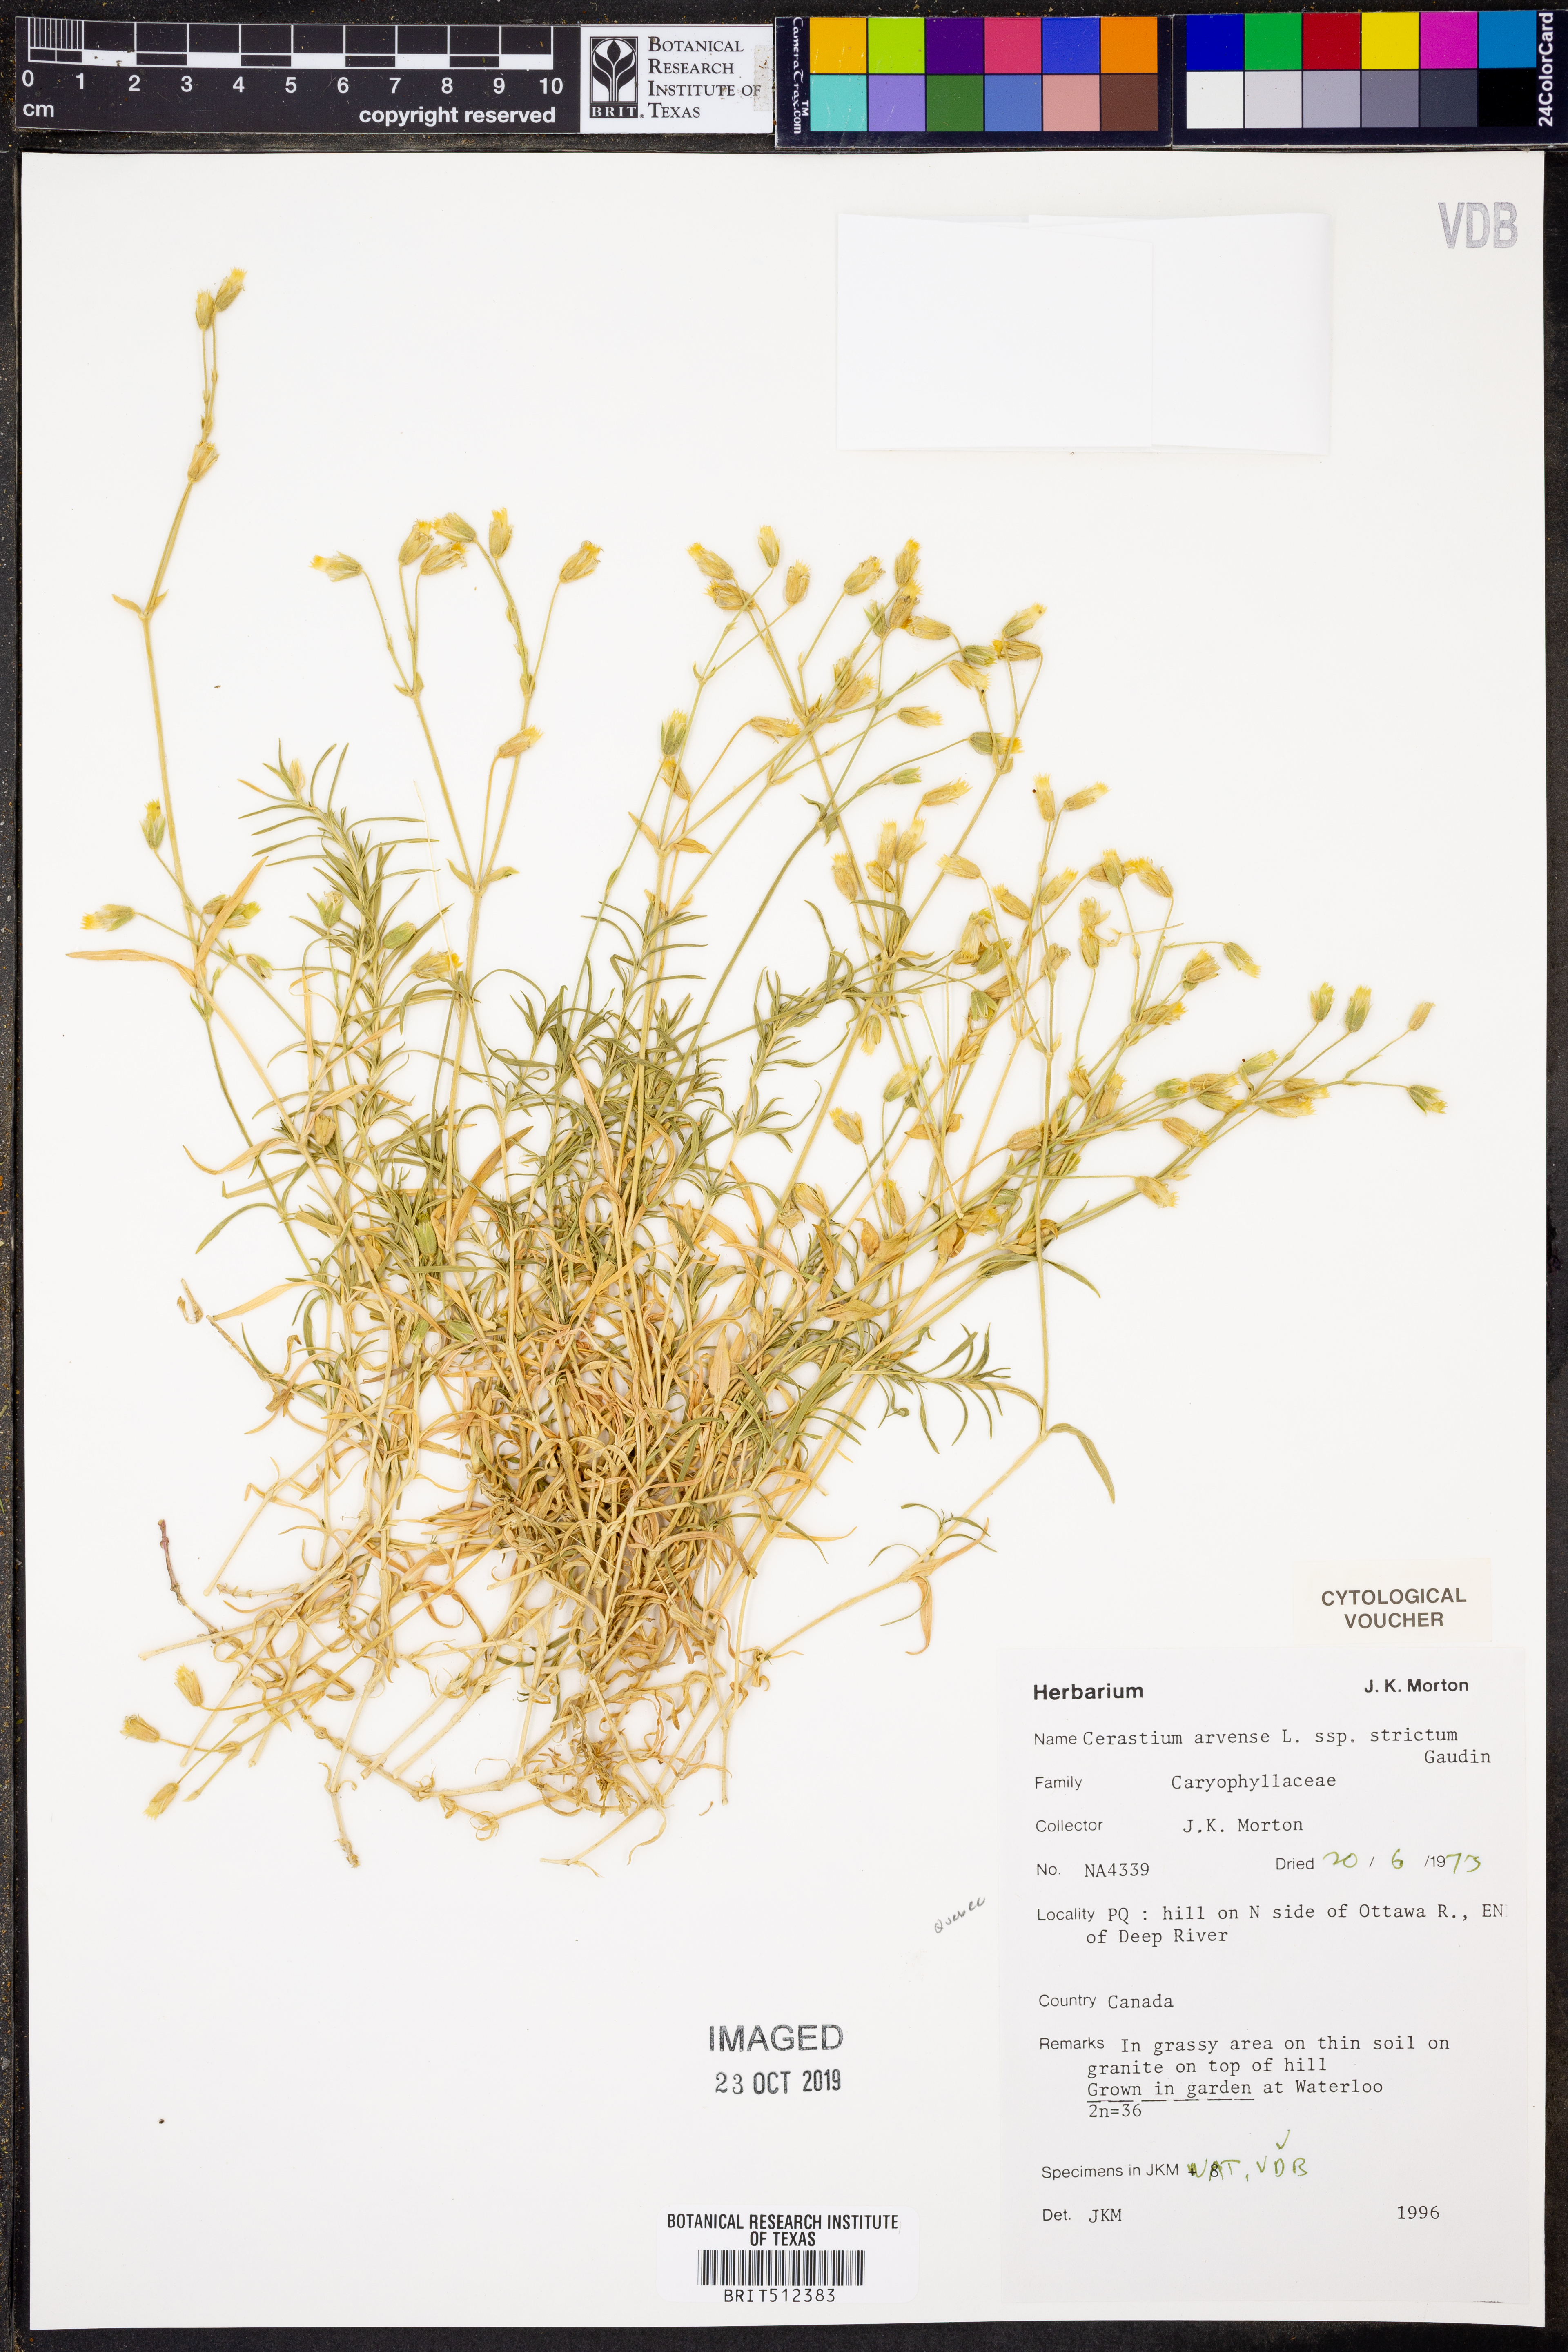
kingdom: Plantae
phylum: Tracheophyta
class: Magnoliopsida
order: Caryophyllales
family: Caryophyllaceae
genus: Cerastium
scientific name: Cerastium elongatum
